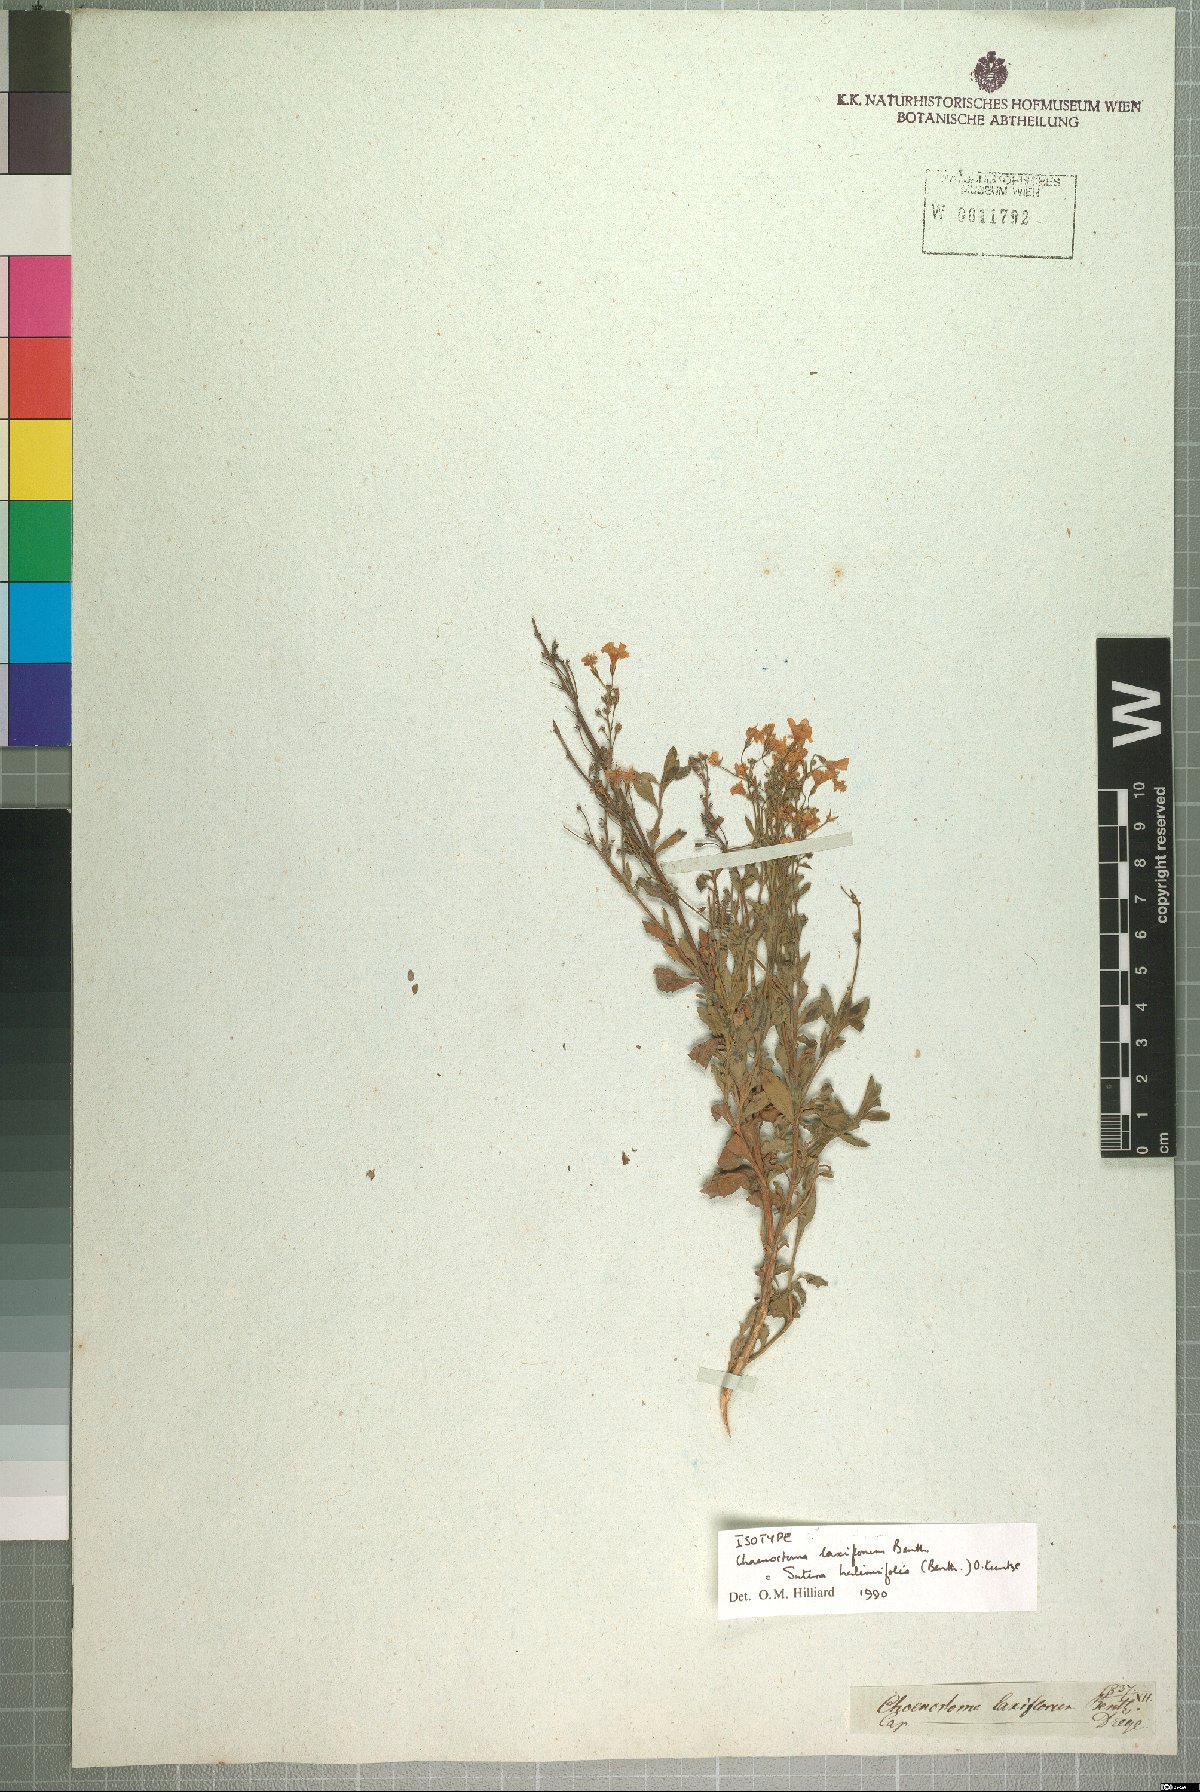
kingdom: Plantae
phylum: Tracheophyta
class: Magnoliopsida
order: Lamiales
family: Scrophulariaceae
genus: Chaenostoma
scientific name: Chaenostoma halimifolium
